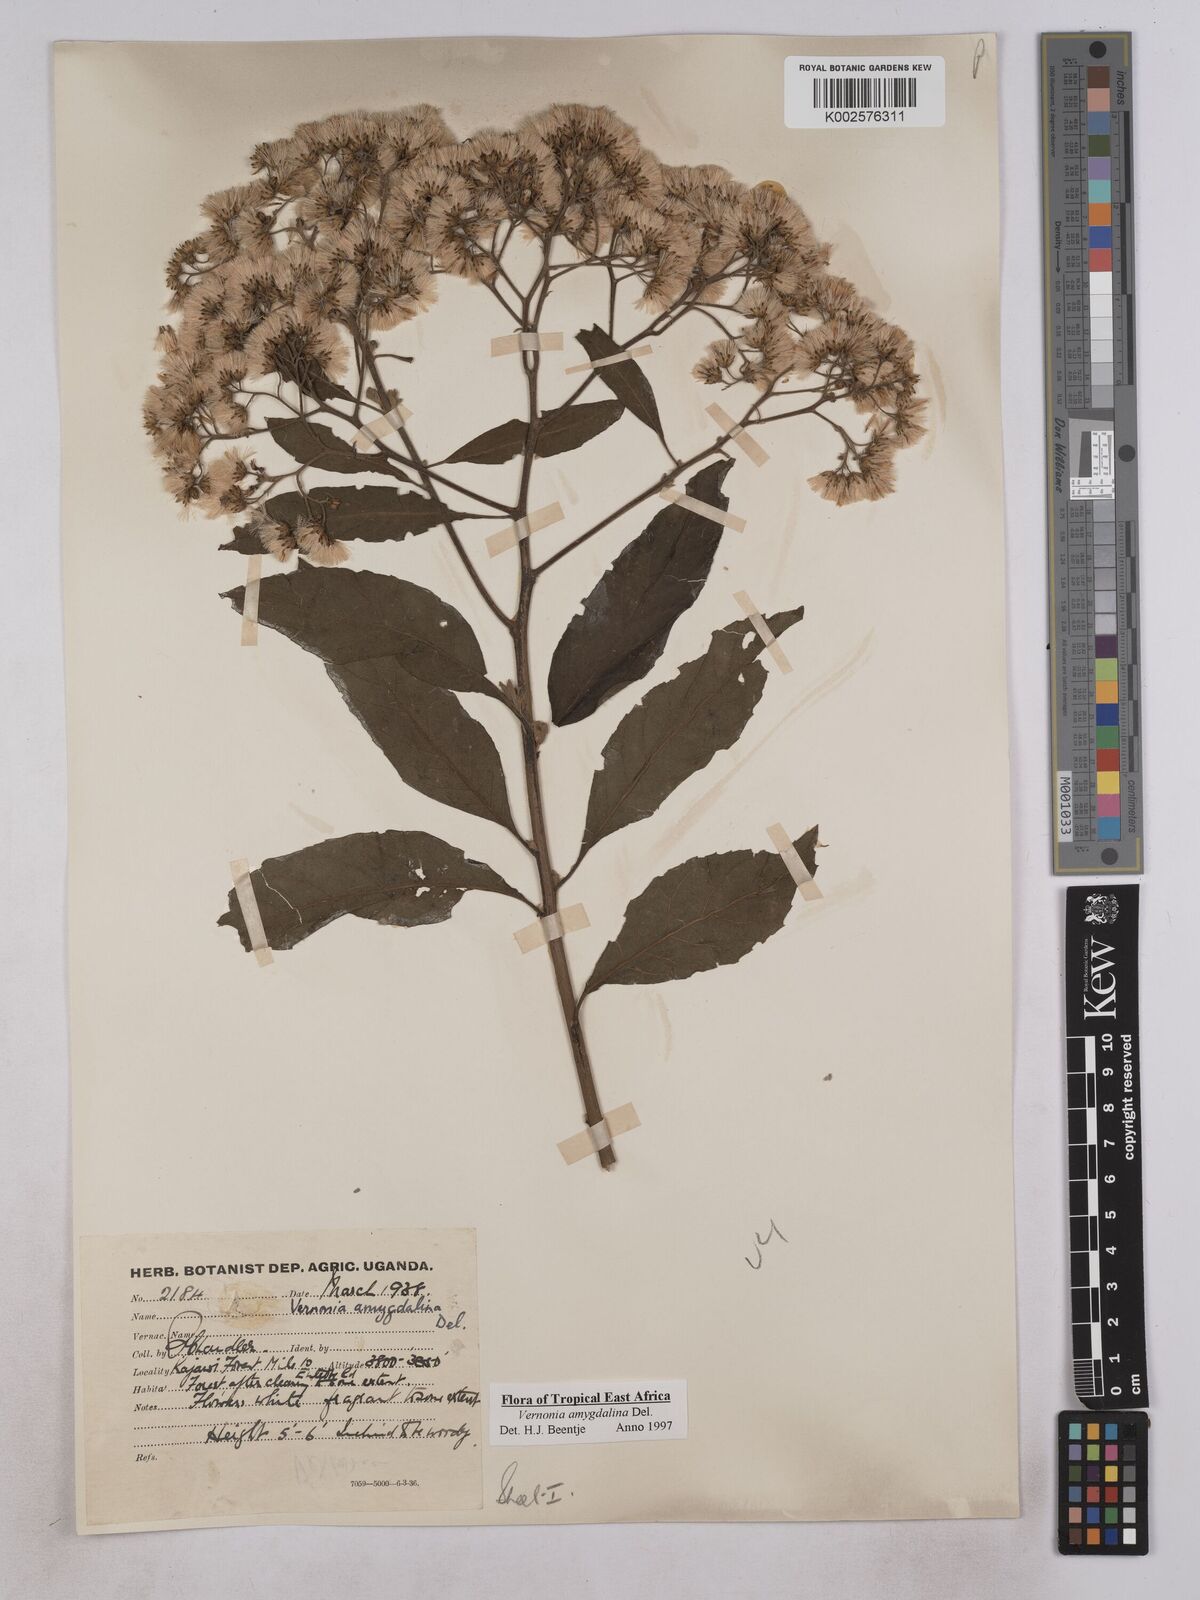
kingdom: Plantae
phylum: Tracheophyta
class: Magnoliopsida
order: Asterales
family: Asteraceae
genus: Gymnanthemum
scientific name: Gymnanthemum amygdalinum
